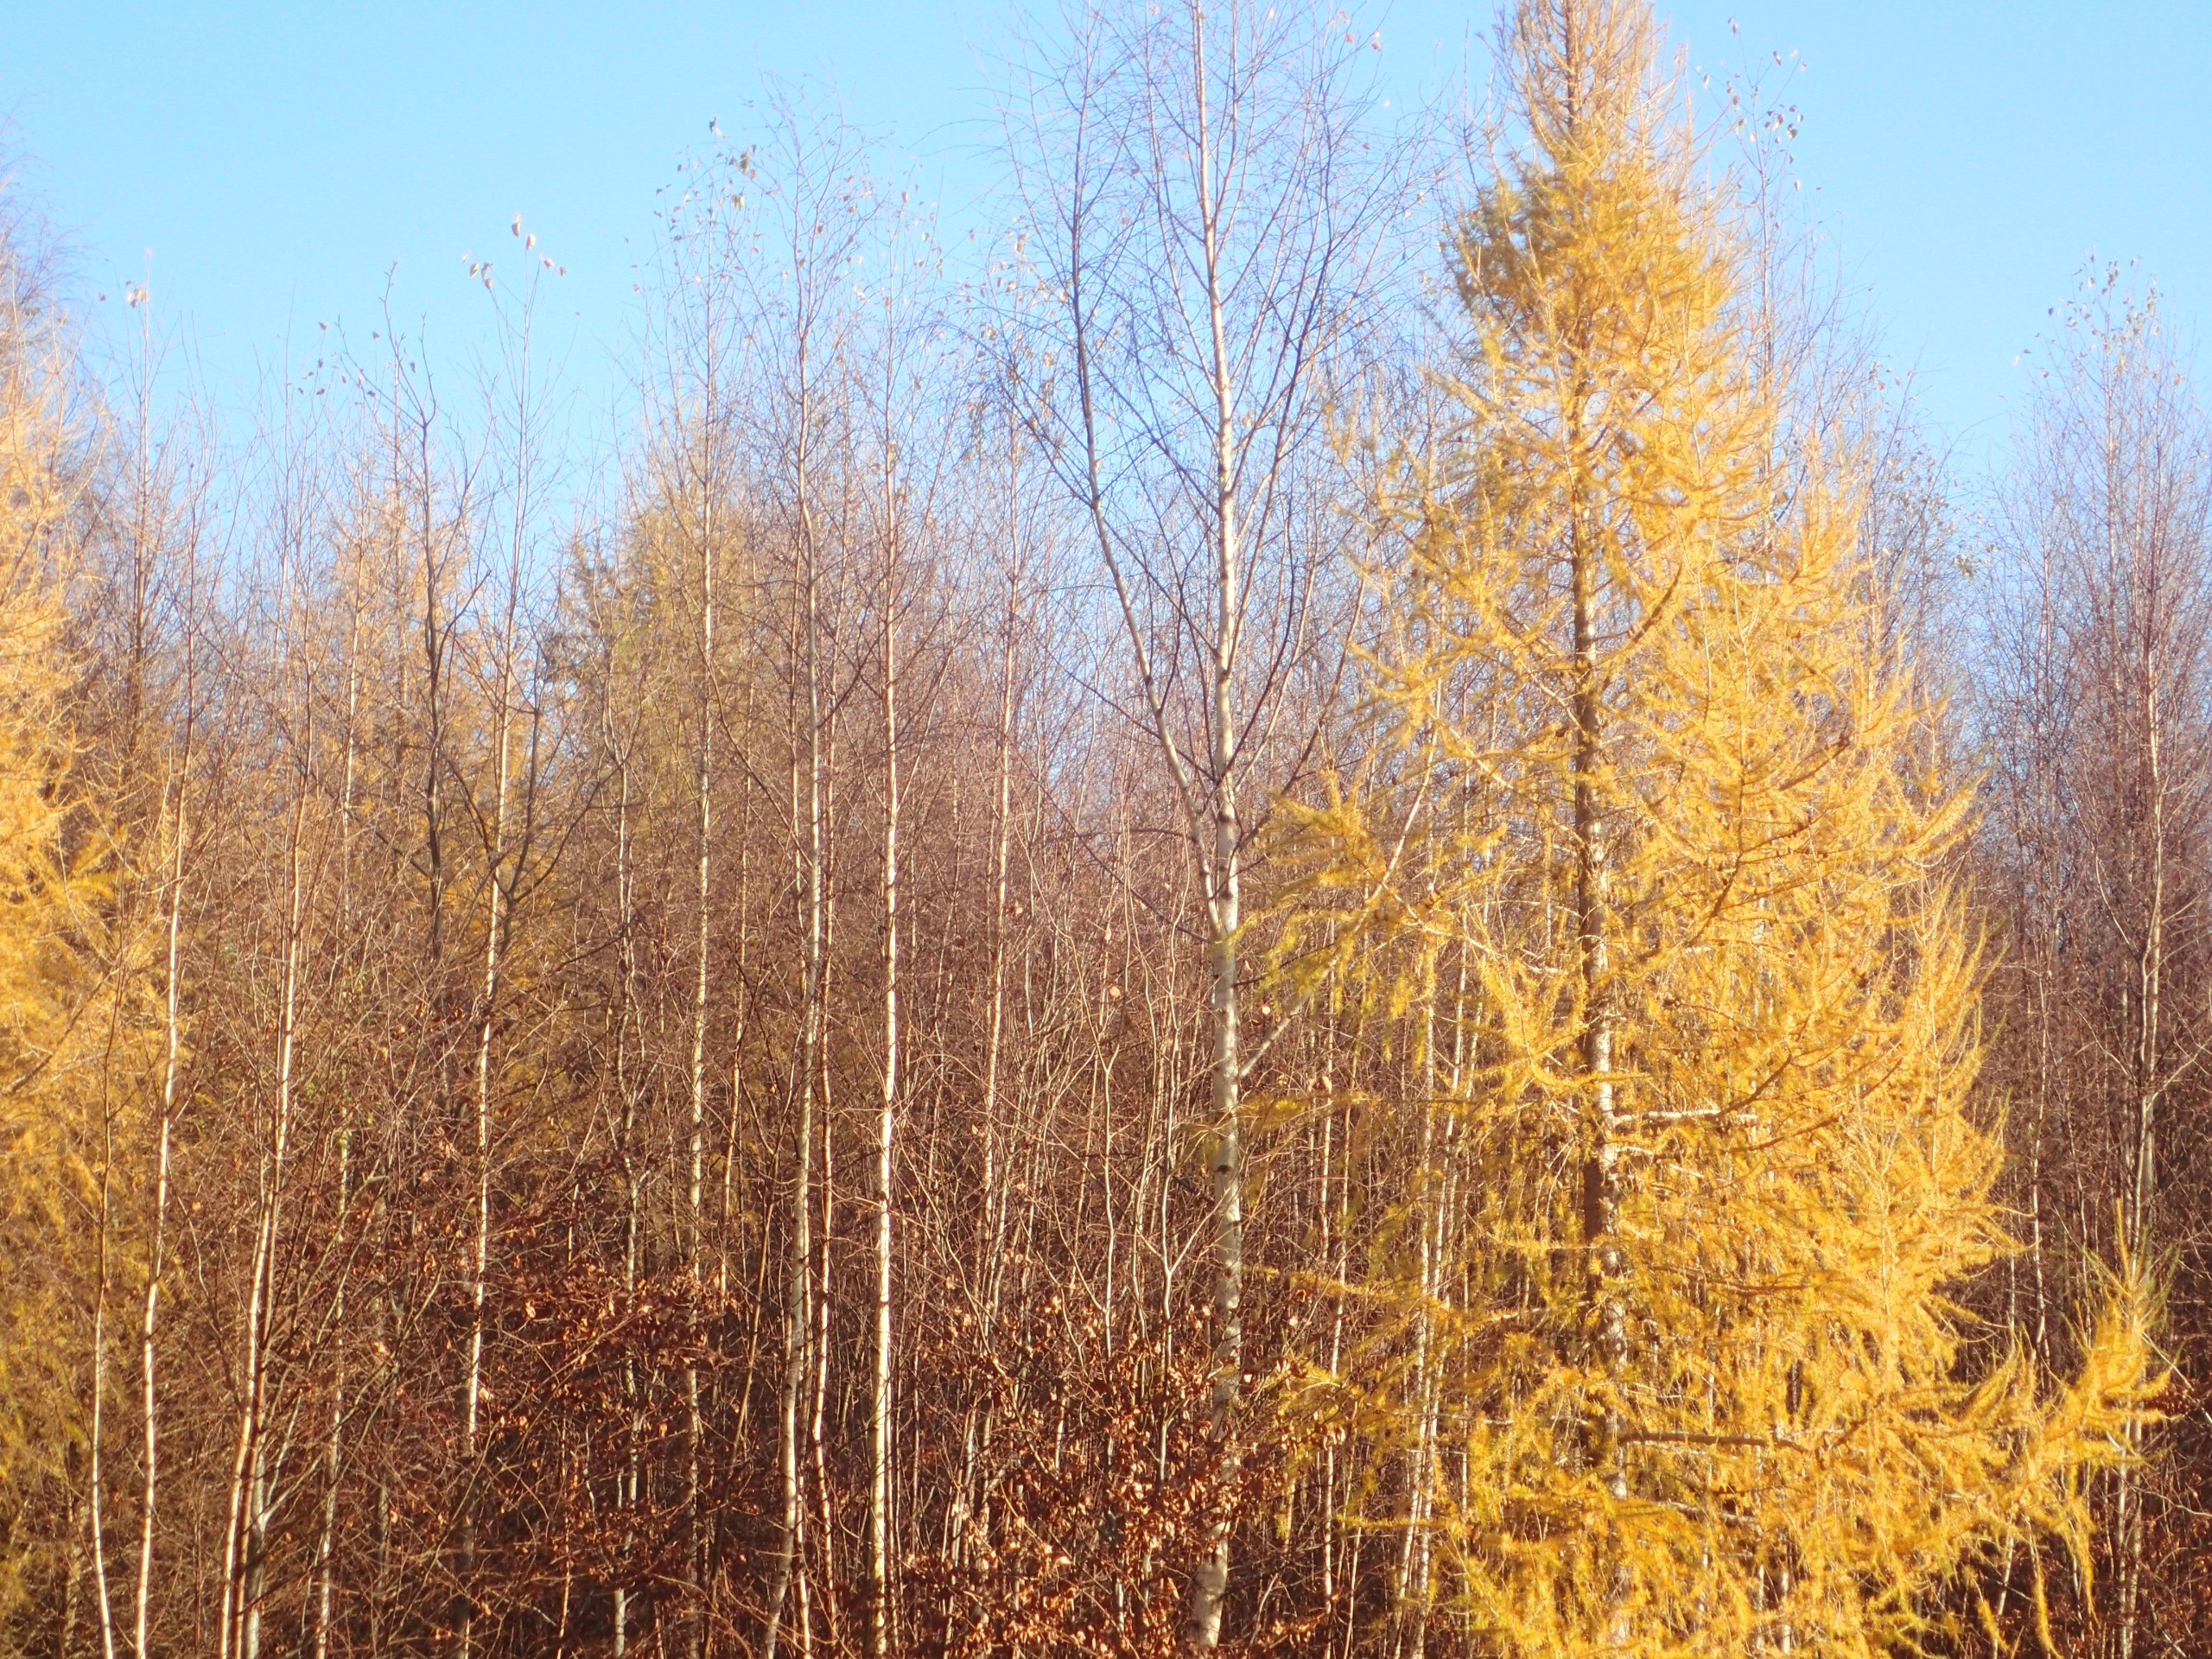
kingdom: Plantae
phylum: Tracheophyta
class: Pinopsida
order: Pinales
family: Pinaceae
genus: Larix
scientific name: Larix
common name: Lærkeslægten
